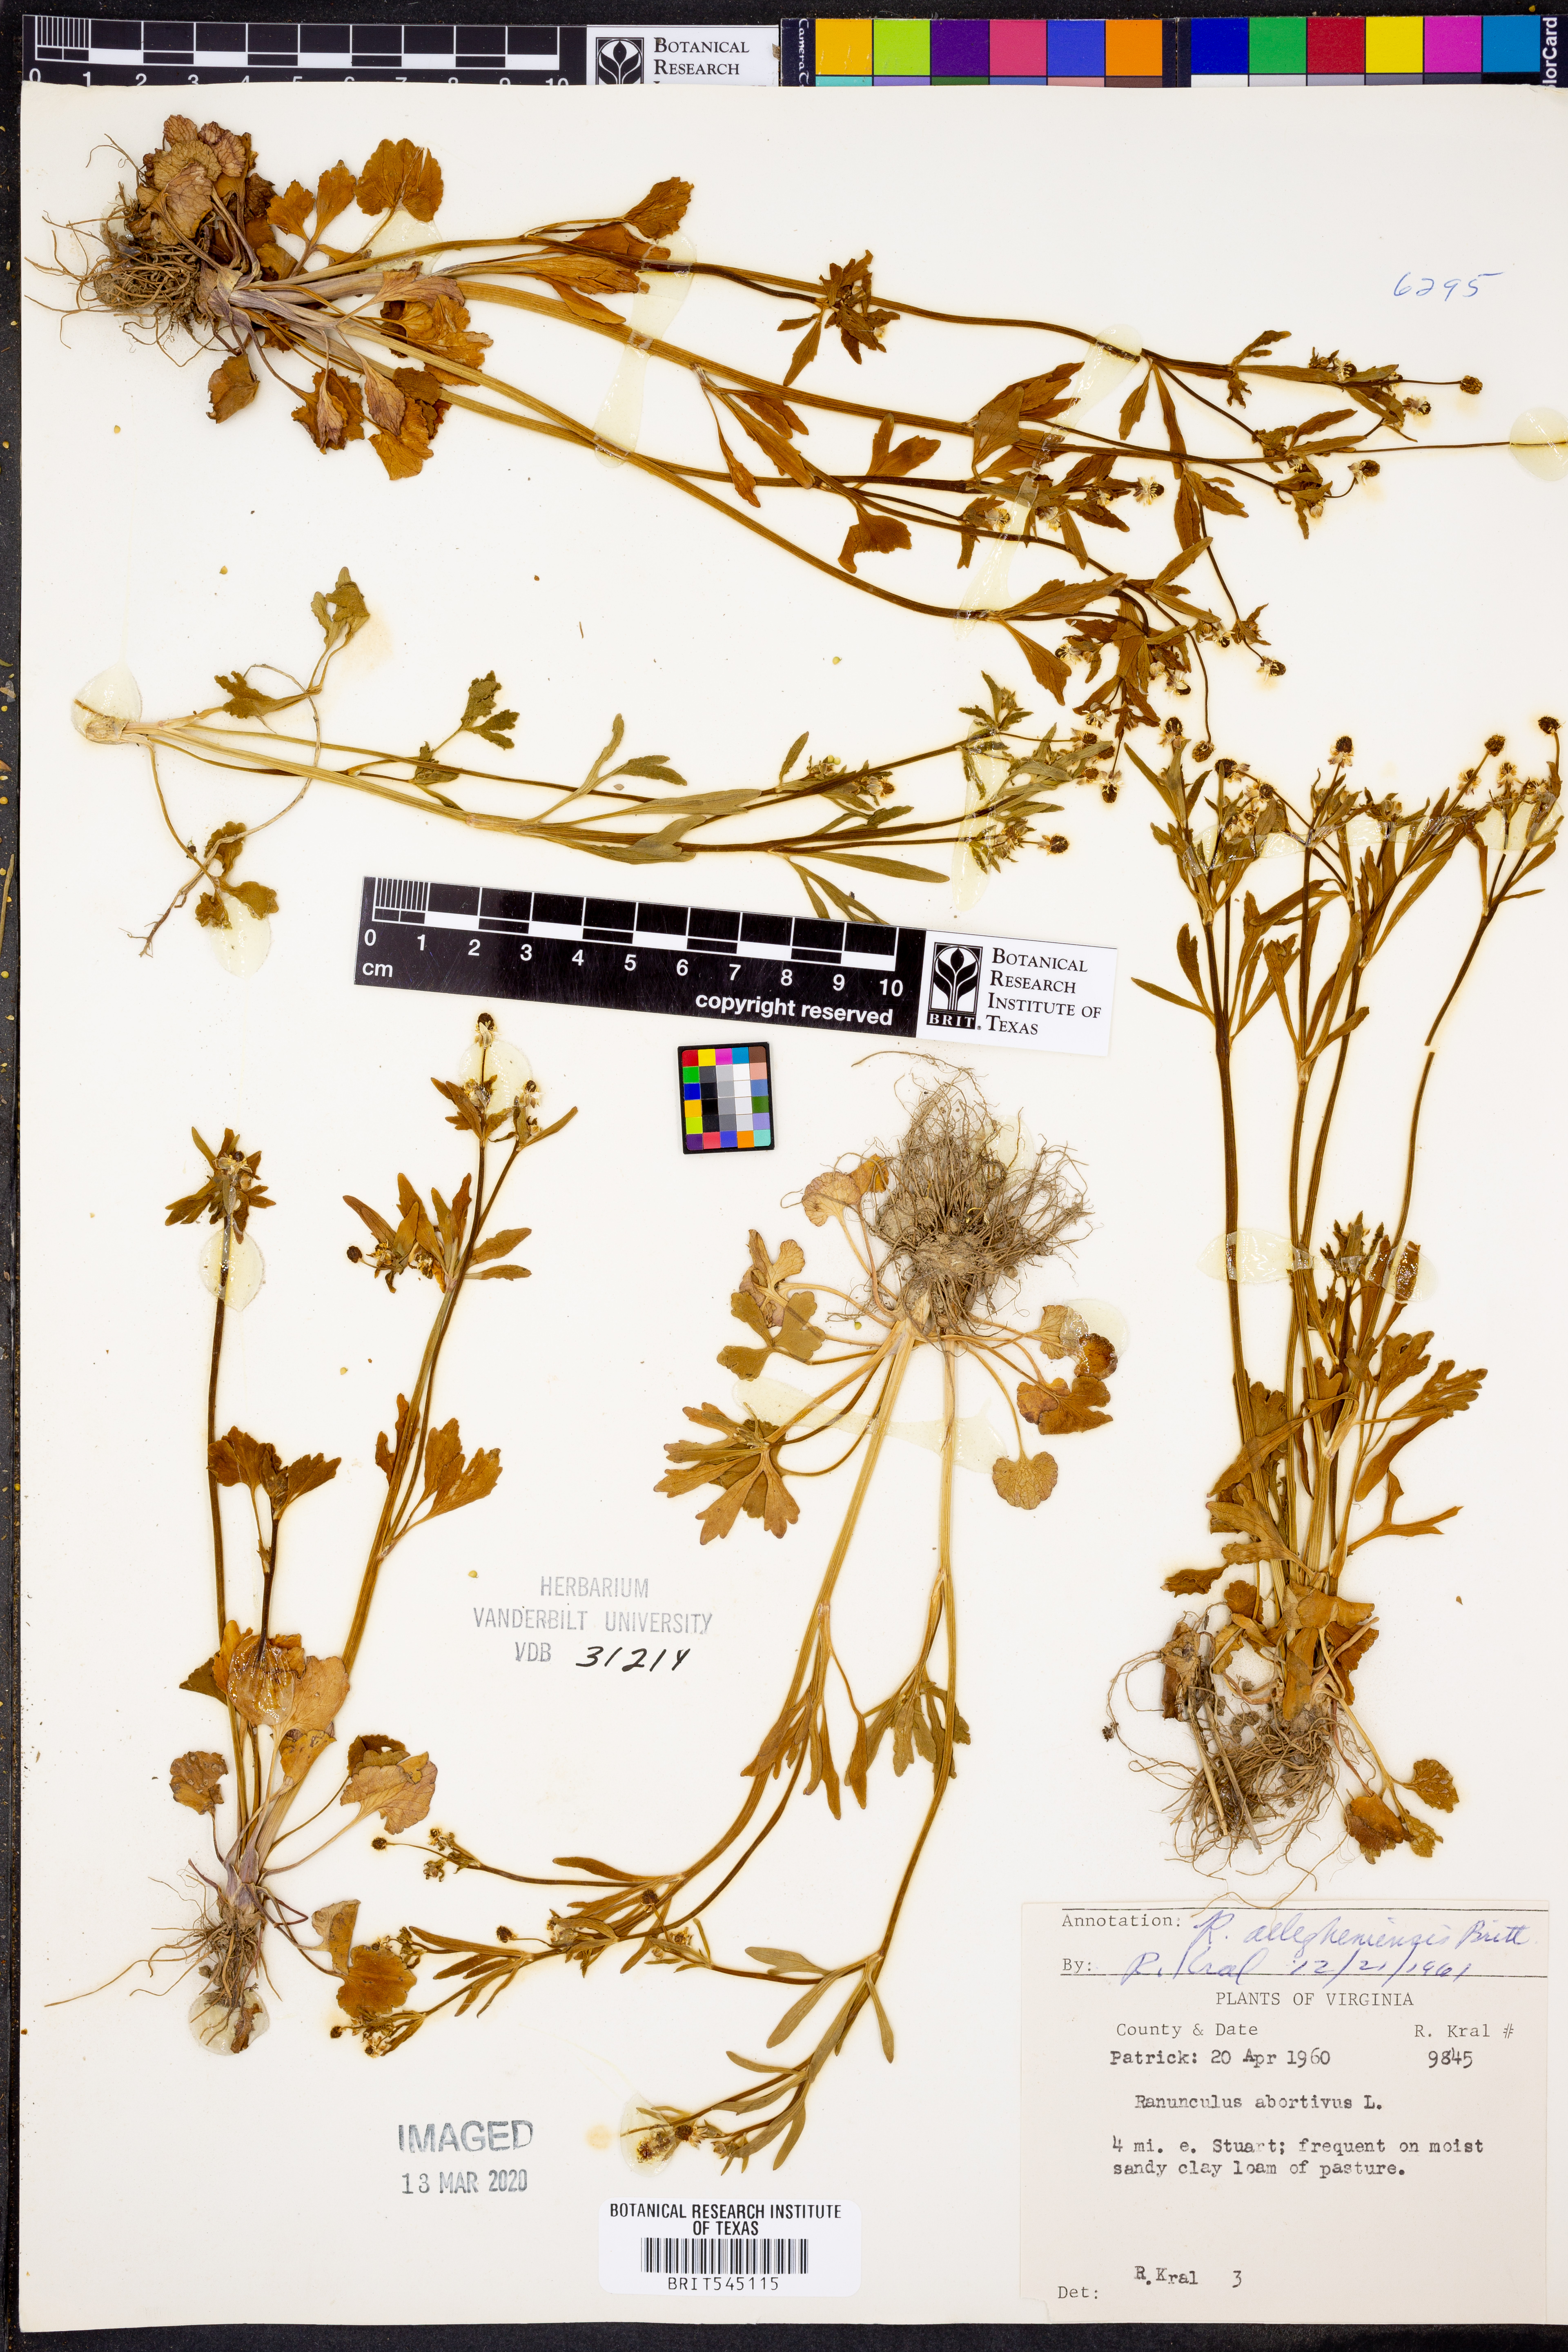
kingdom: Plantae
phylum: Tracheophyta
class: Magnoliopsida
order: Ranunculales
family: Ranunculaceae
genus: Ranunculus
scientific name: Ranunculus allegheniensis
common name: Allegheny mountain buttercup
